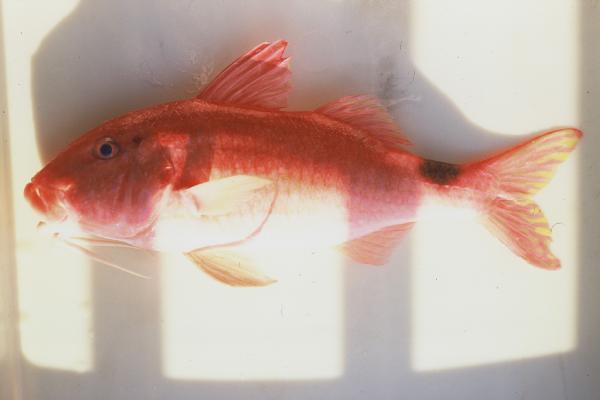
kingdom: Animalia
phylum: Chordata
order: Perciformes
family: Mullidae
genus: Parupeneus
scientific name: Parupeneus rubescens
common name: Rosy goatfish
